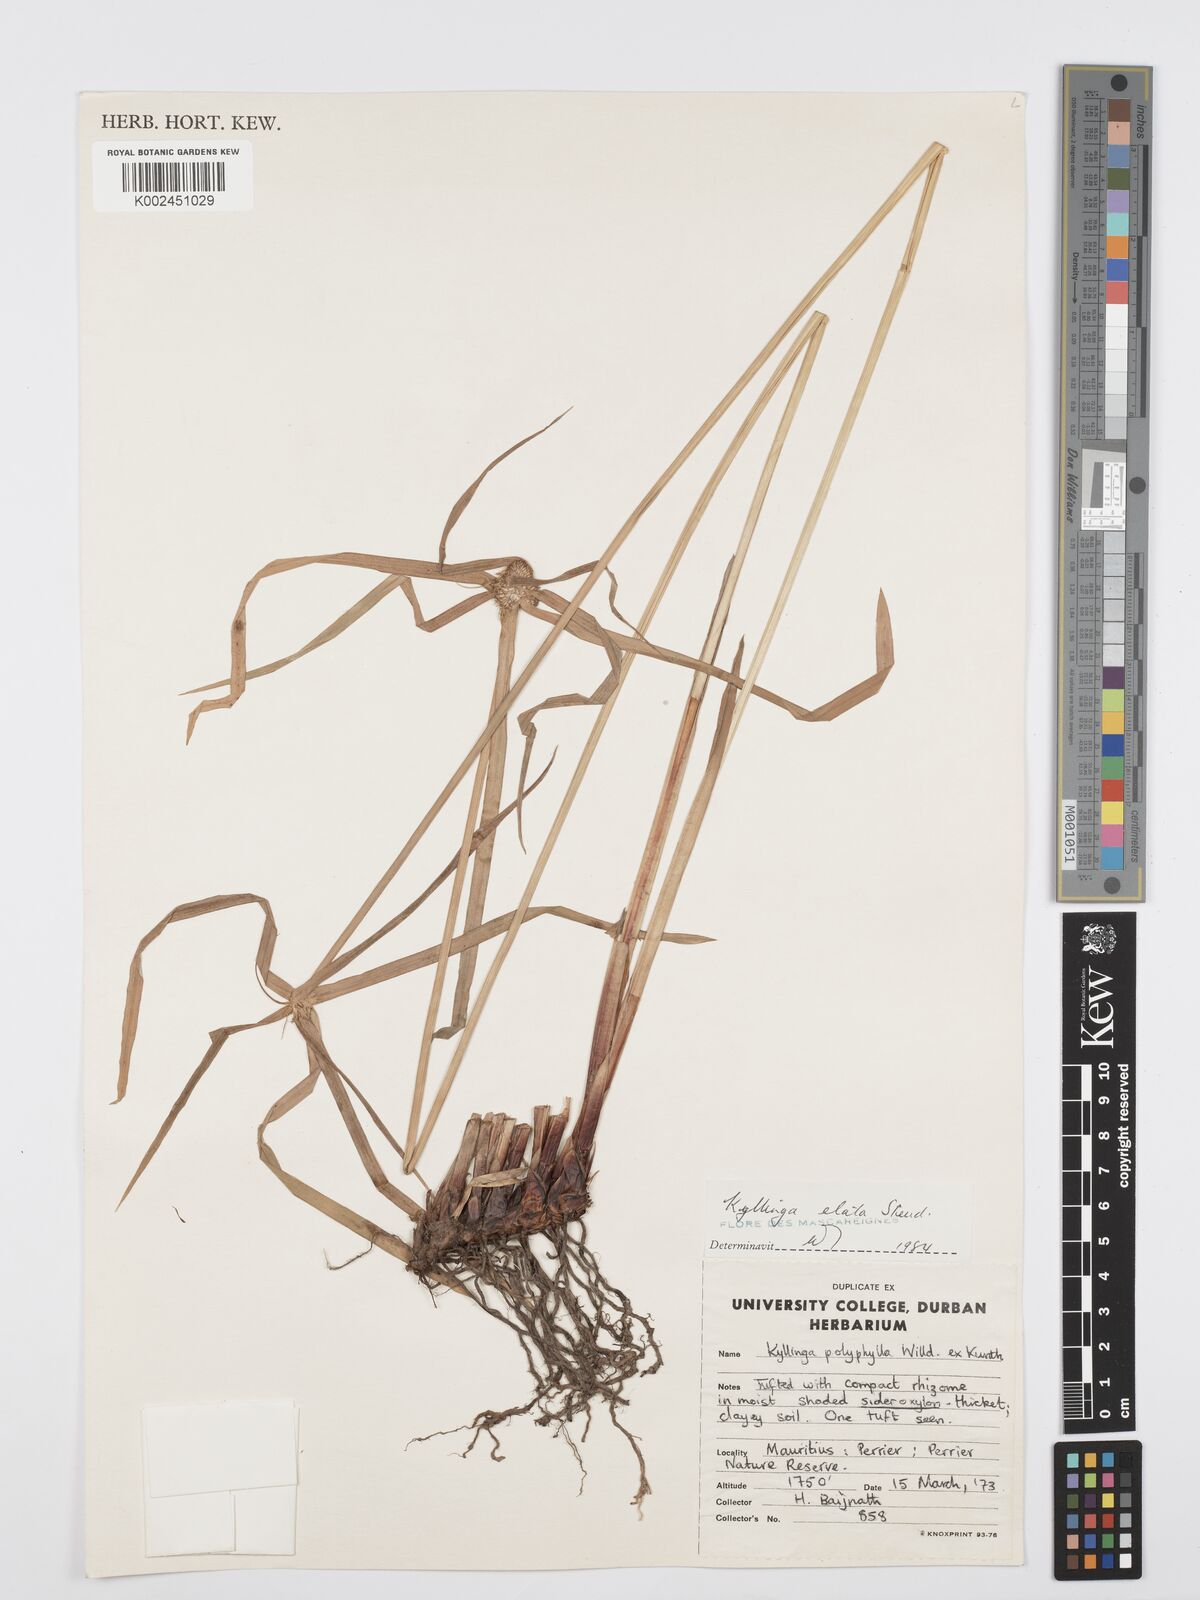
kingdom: Plantae
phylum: Tracheophyta
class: Liliopsida
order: Poales
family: Cyperaceae
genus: Cyperus
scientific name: Cyperus bulbosus
